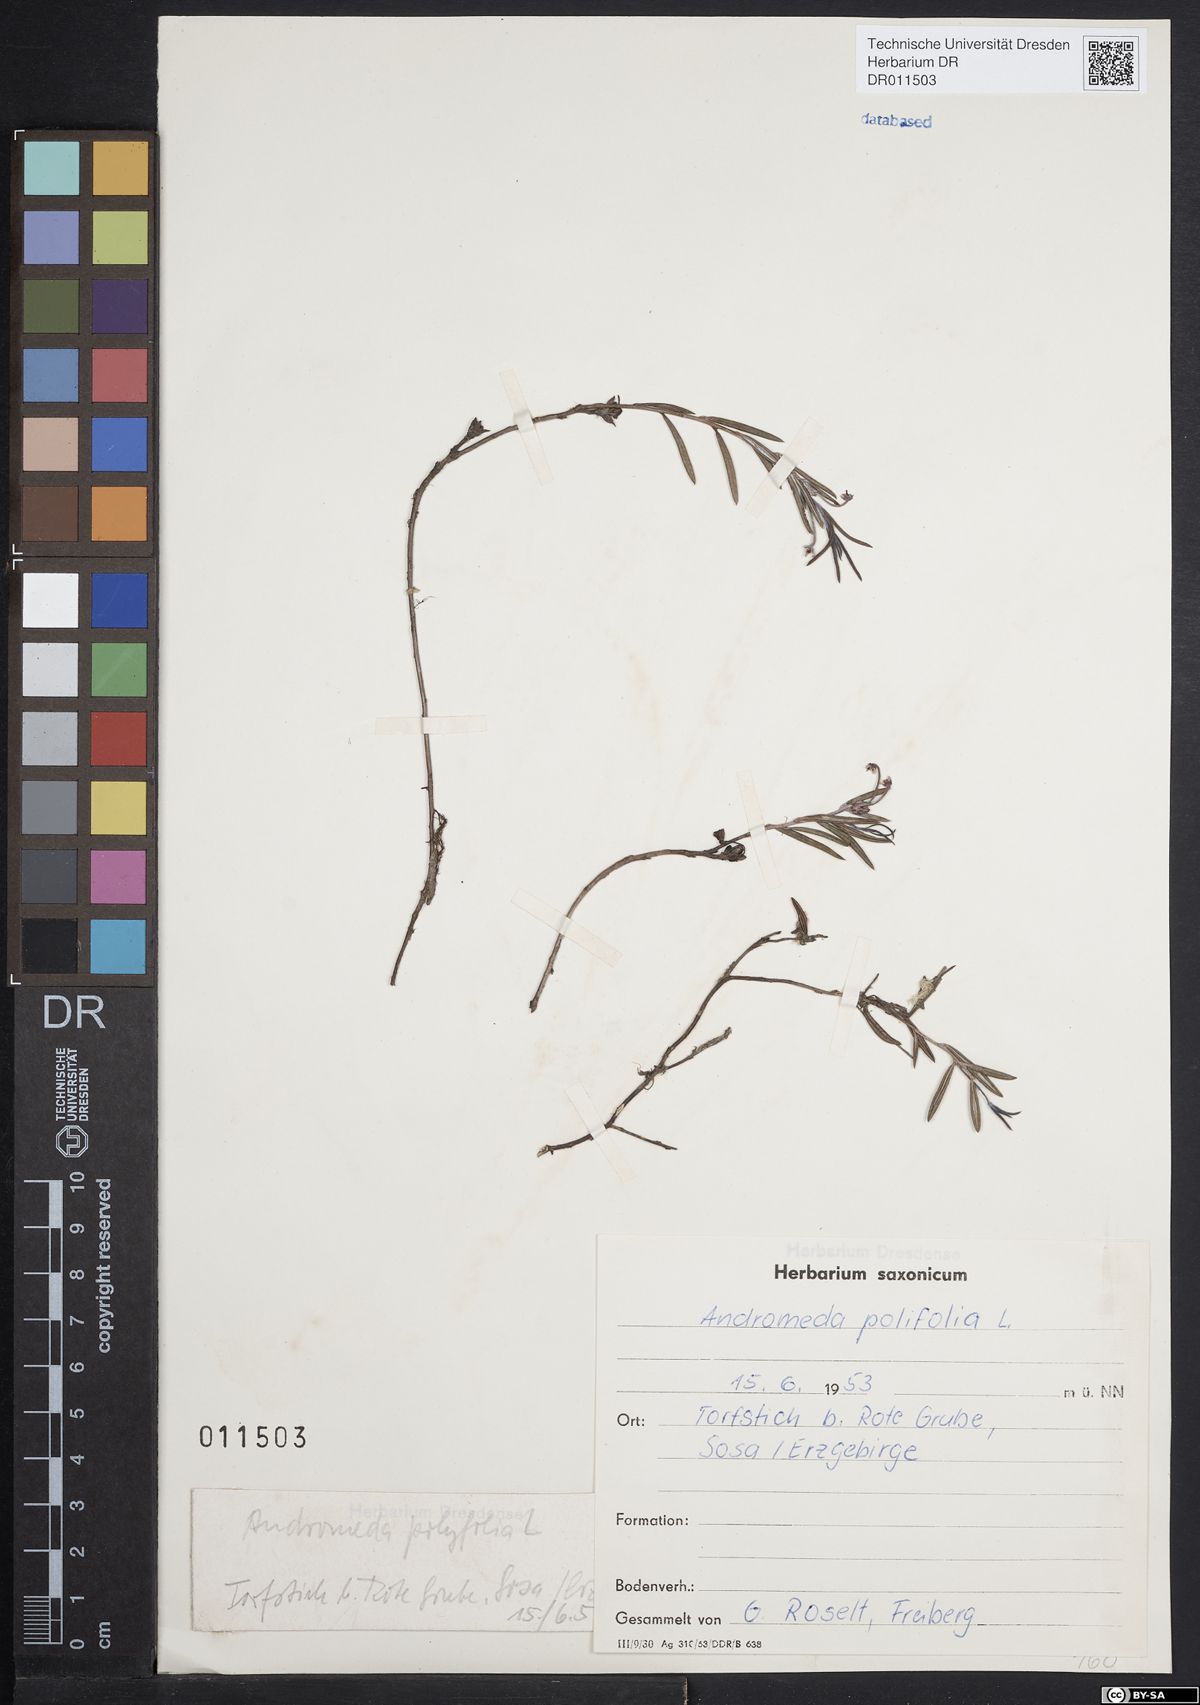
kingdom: Plantae
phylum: Tracheophyta
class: Magnoliopsida
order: Ericales
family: Ericaceae
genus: Andromeda
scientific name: Andromeda polifolia
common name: Bog-rosemary
